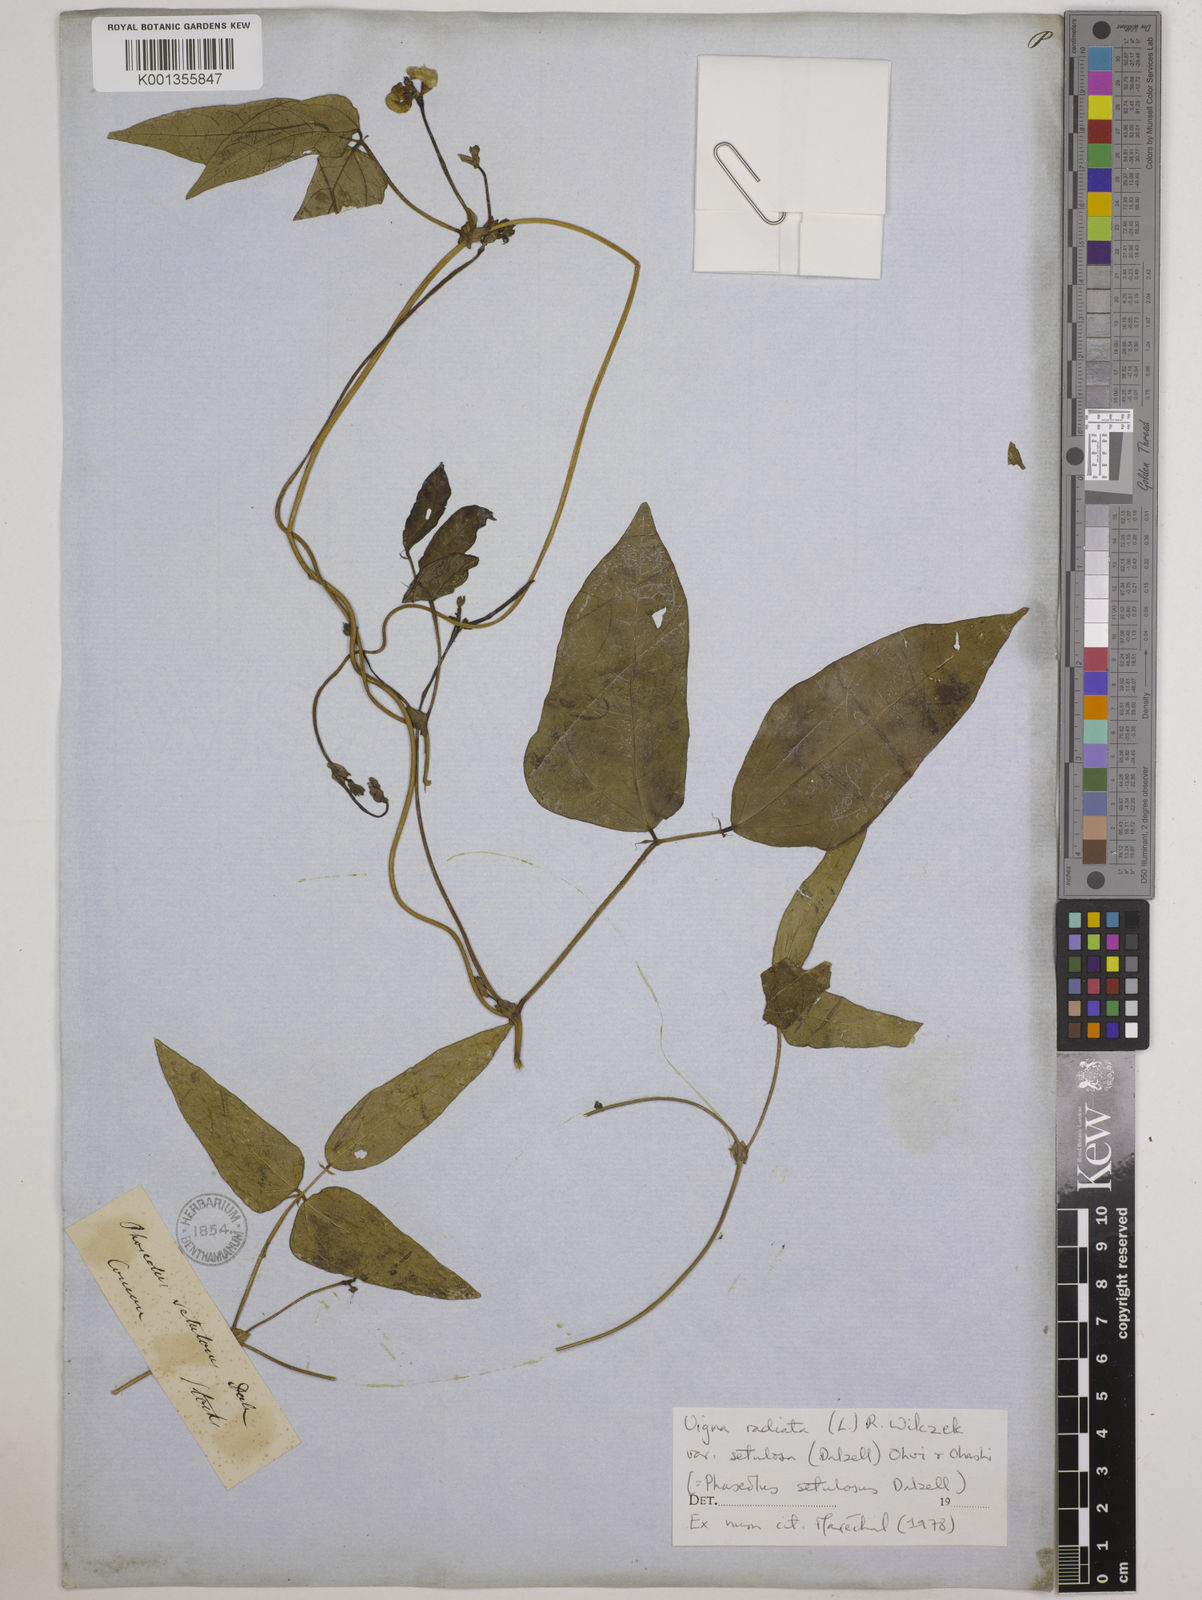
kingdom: Plantae
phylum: Tracheophyta
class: Magnoliopsida
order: Fabales
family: Fabaceae
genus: Vigna
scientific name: Vigna radiata
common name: Mung-bean
